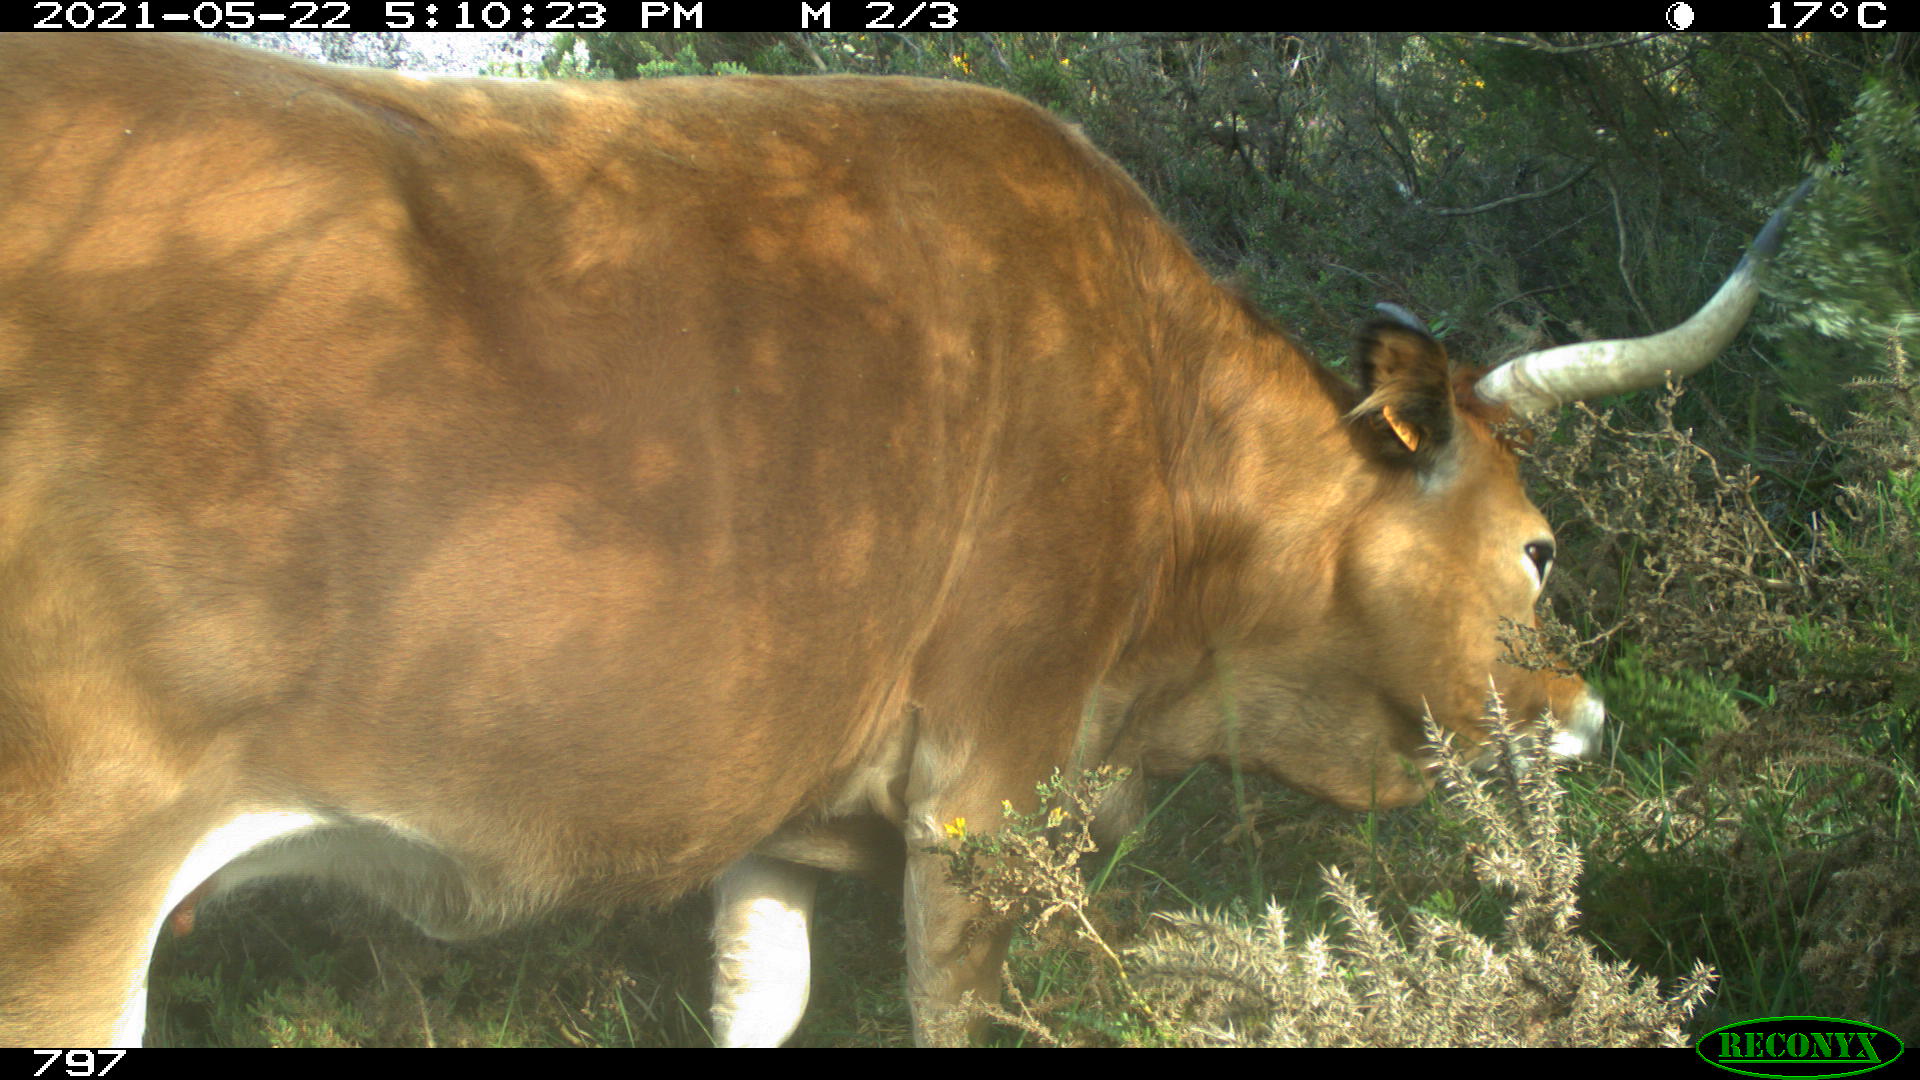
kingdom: Animalia
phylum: Chordata
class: Mammalia
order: Artiodactyla
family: Bovidae
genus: Bos
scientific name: Bos taurus
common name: Domesticated cattle
